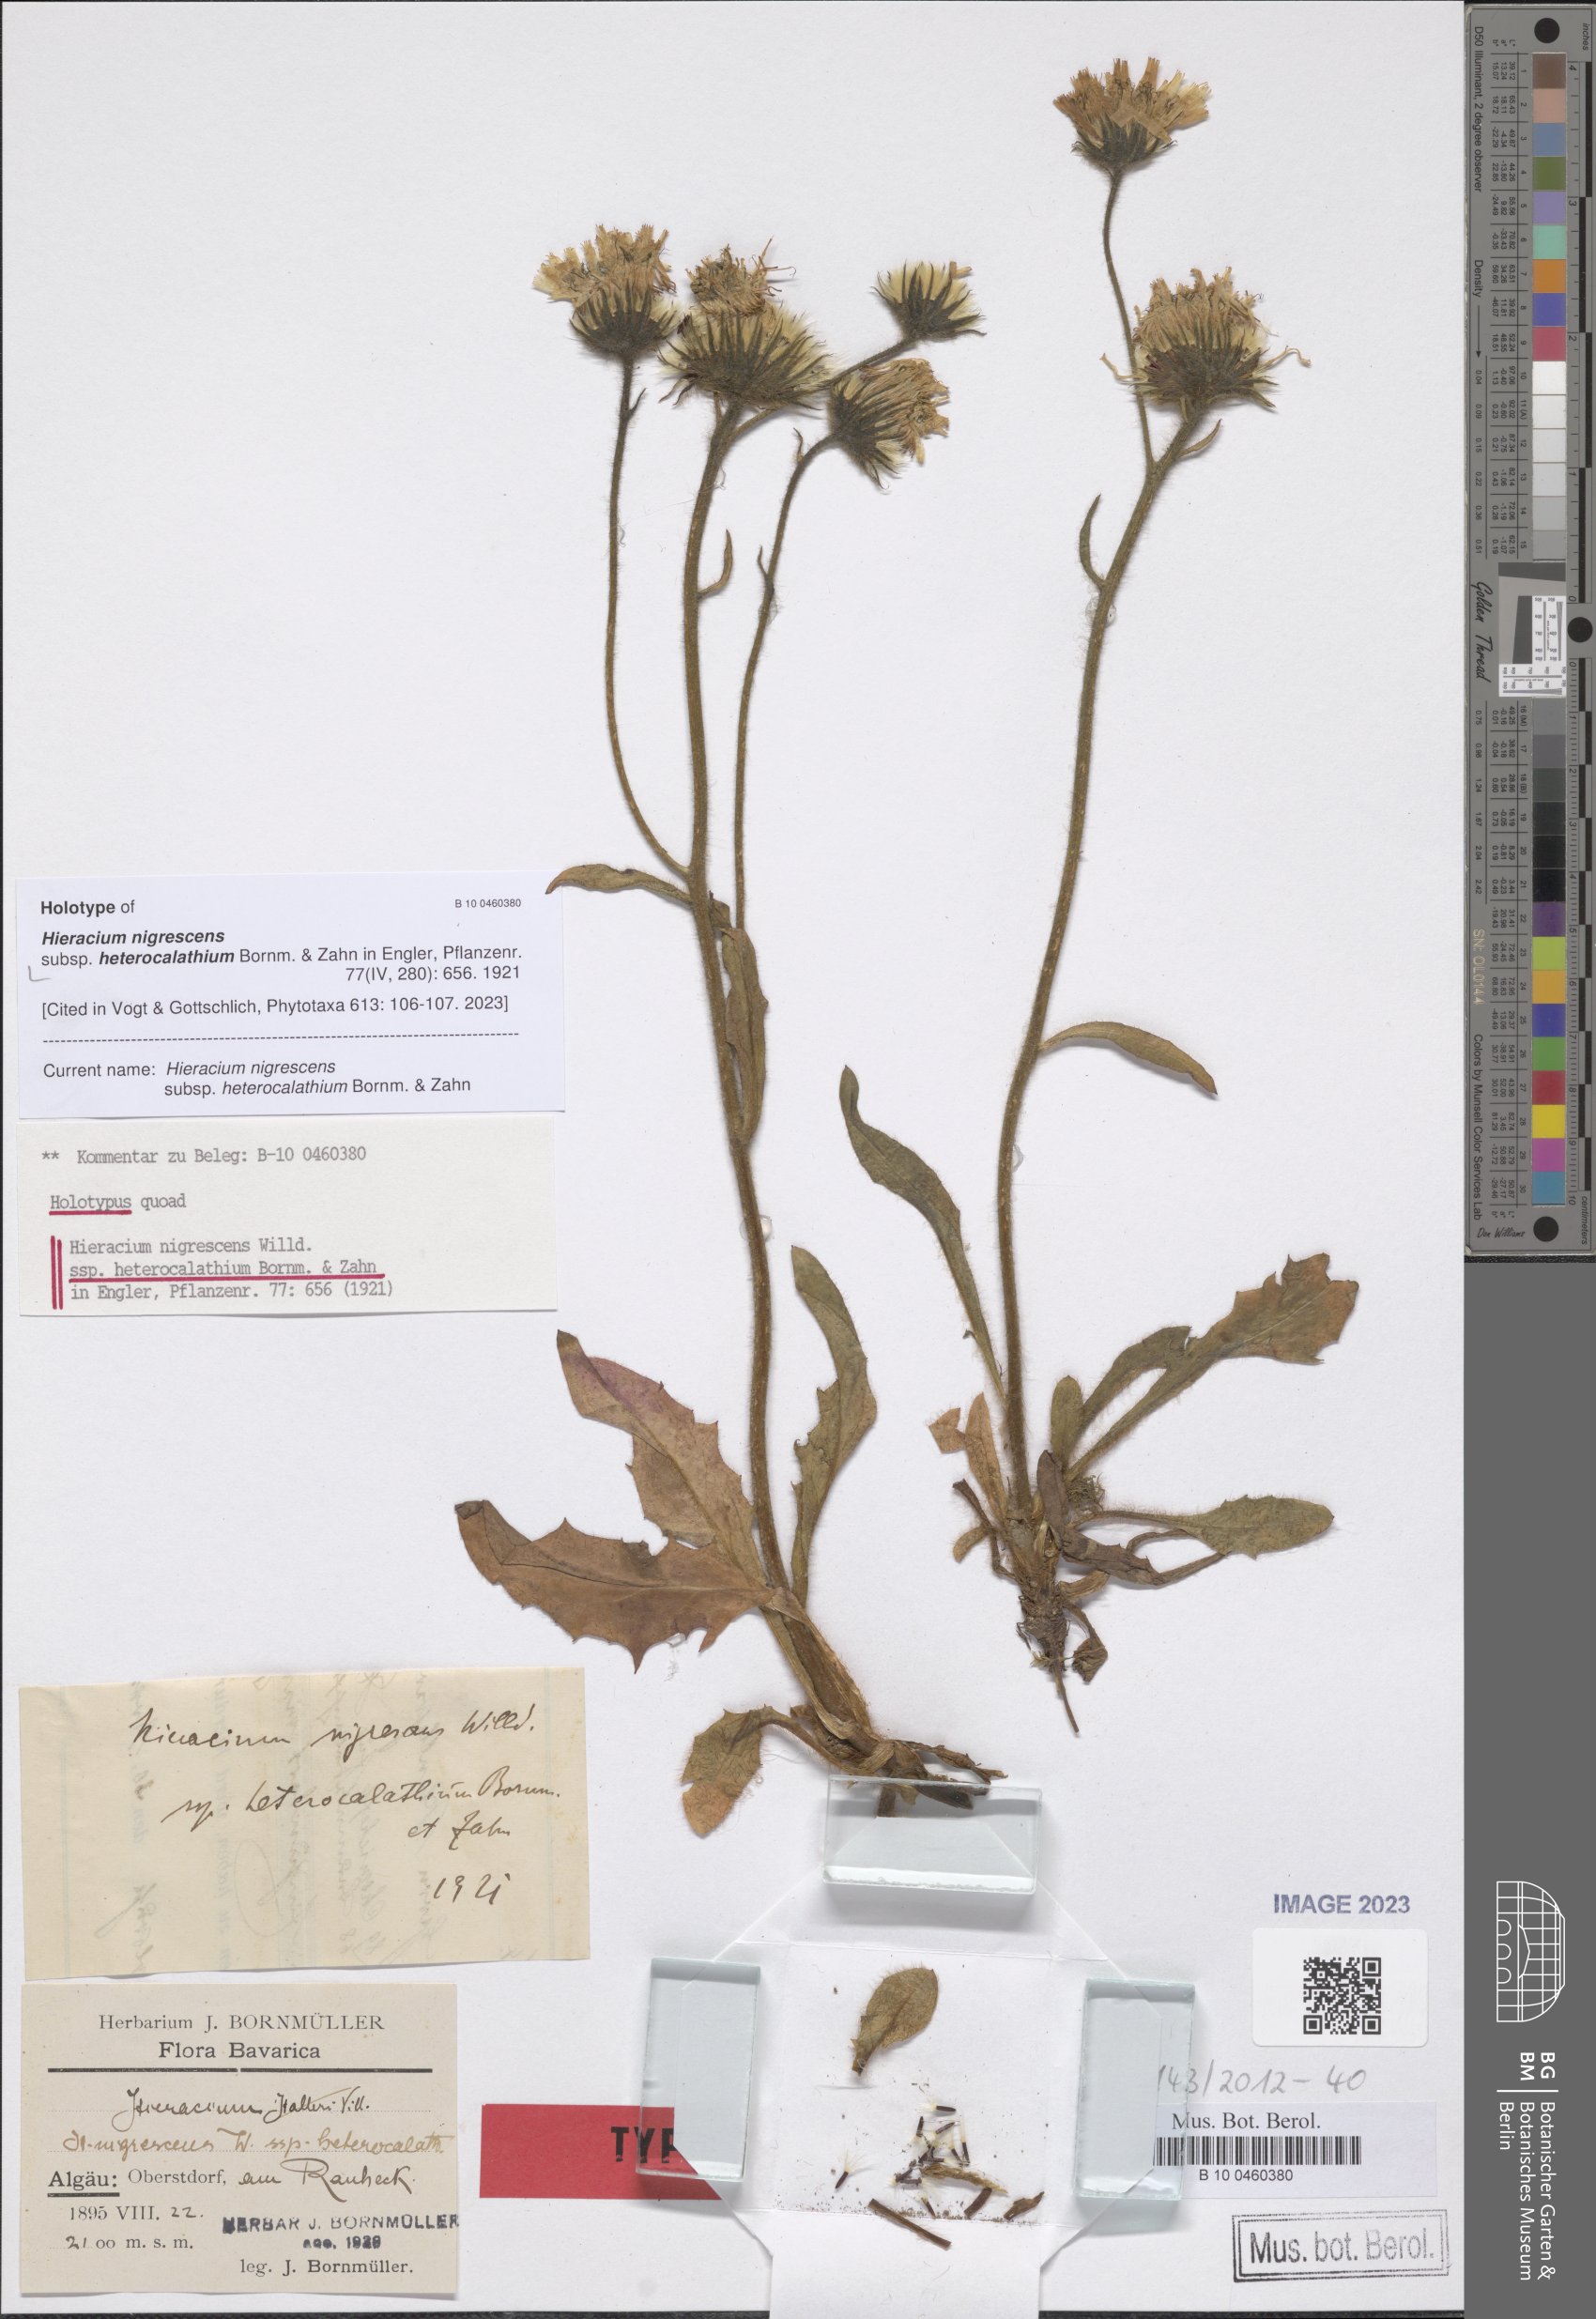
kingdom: Plantae
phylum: Tracheophyta
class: Magnoliopsida
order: Asterales
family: Asteraceae
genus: Hieracium
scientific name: Hieracium nigrescens
